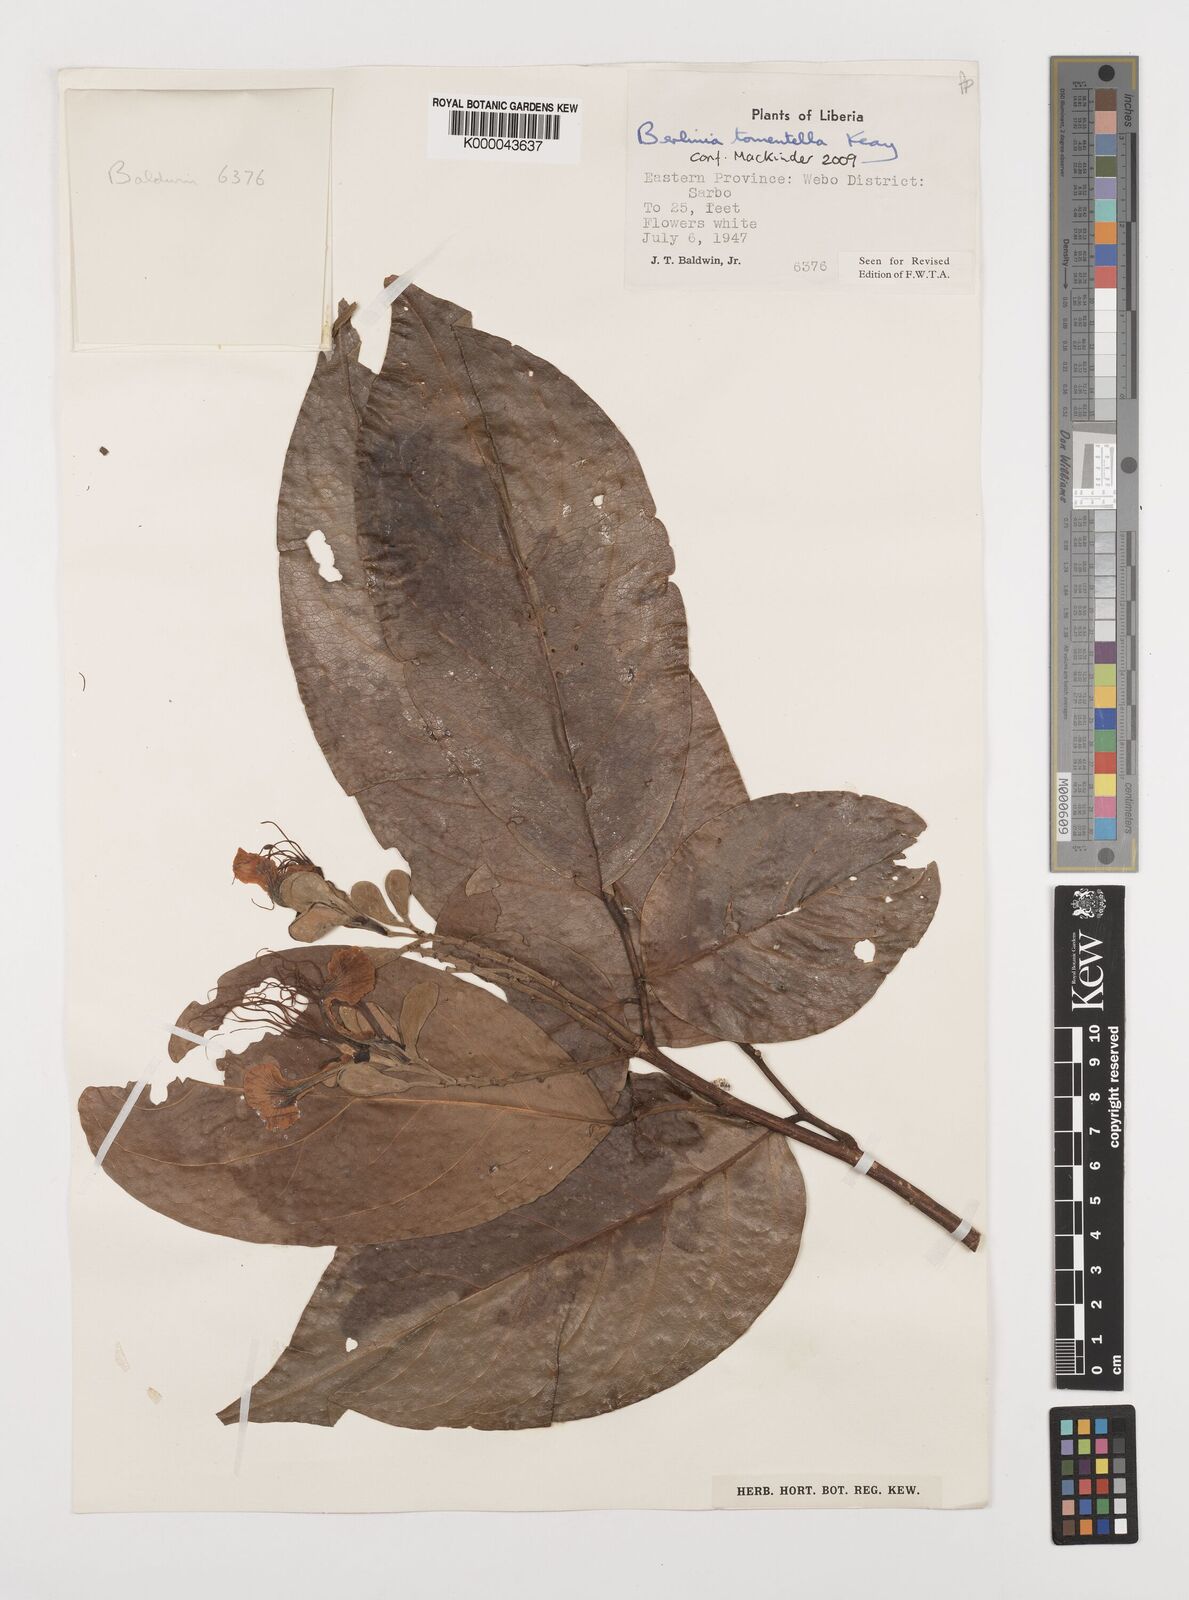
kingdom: Plantae
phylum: Tracheophyta
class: Magnoliopsida
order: Fabales
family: Fabaceae
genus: Berlinia
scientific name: Berlinia tomentella
